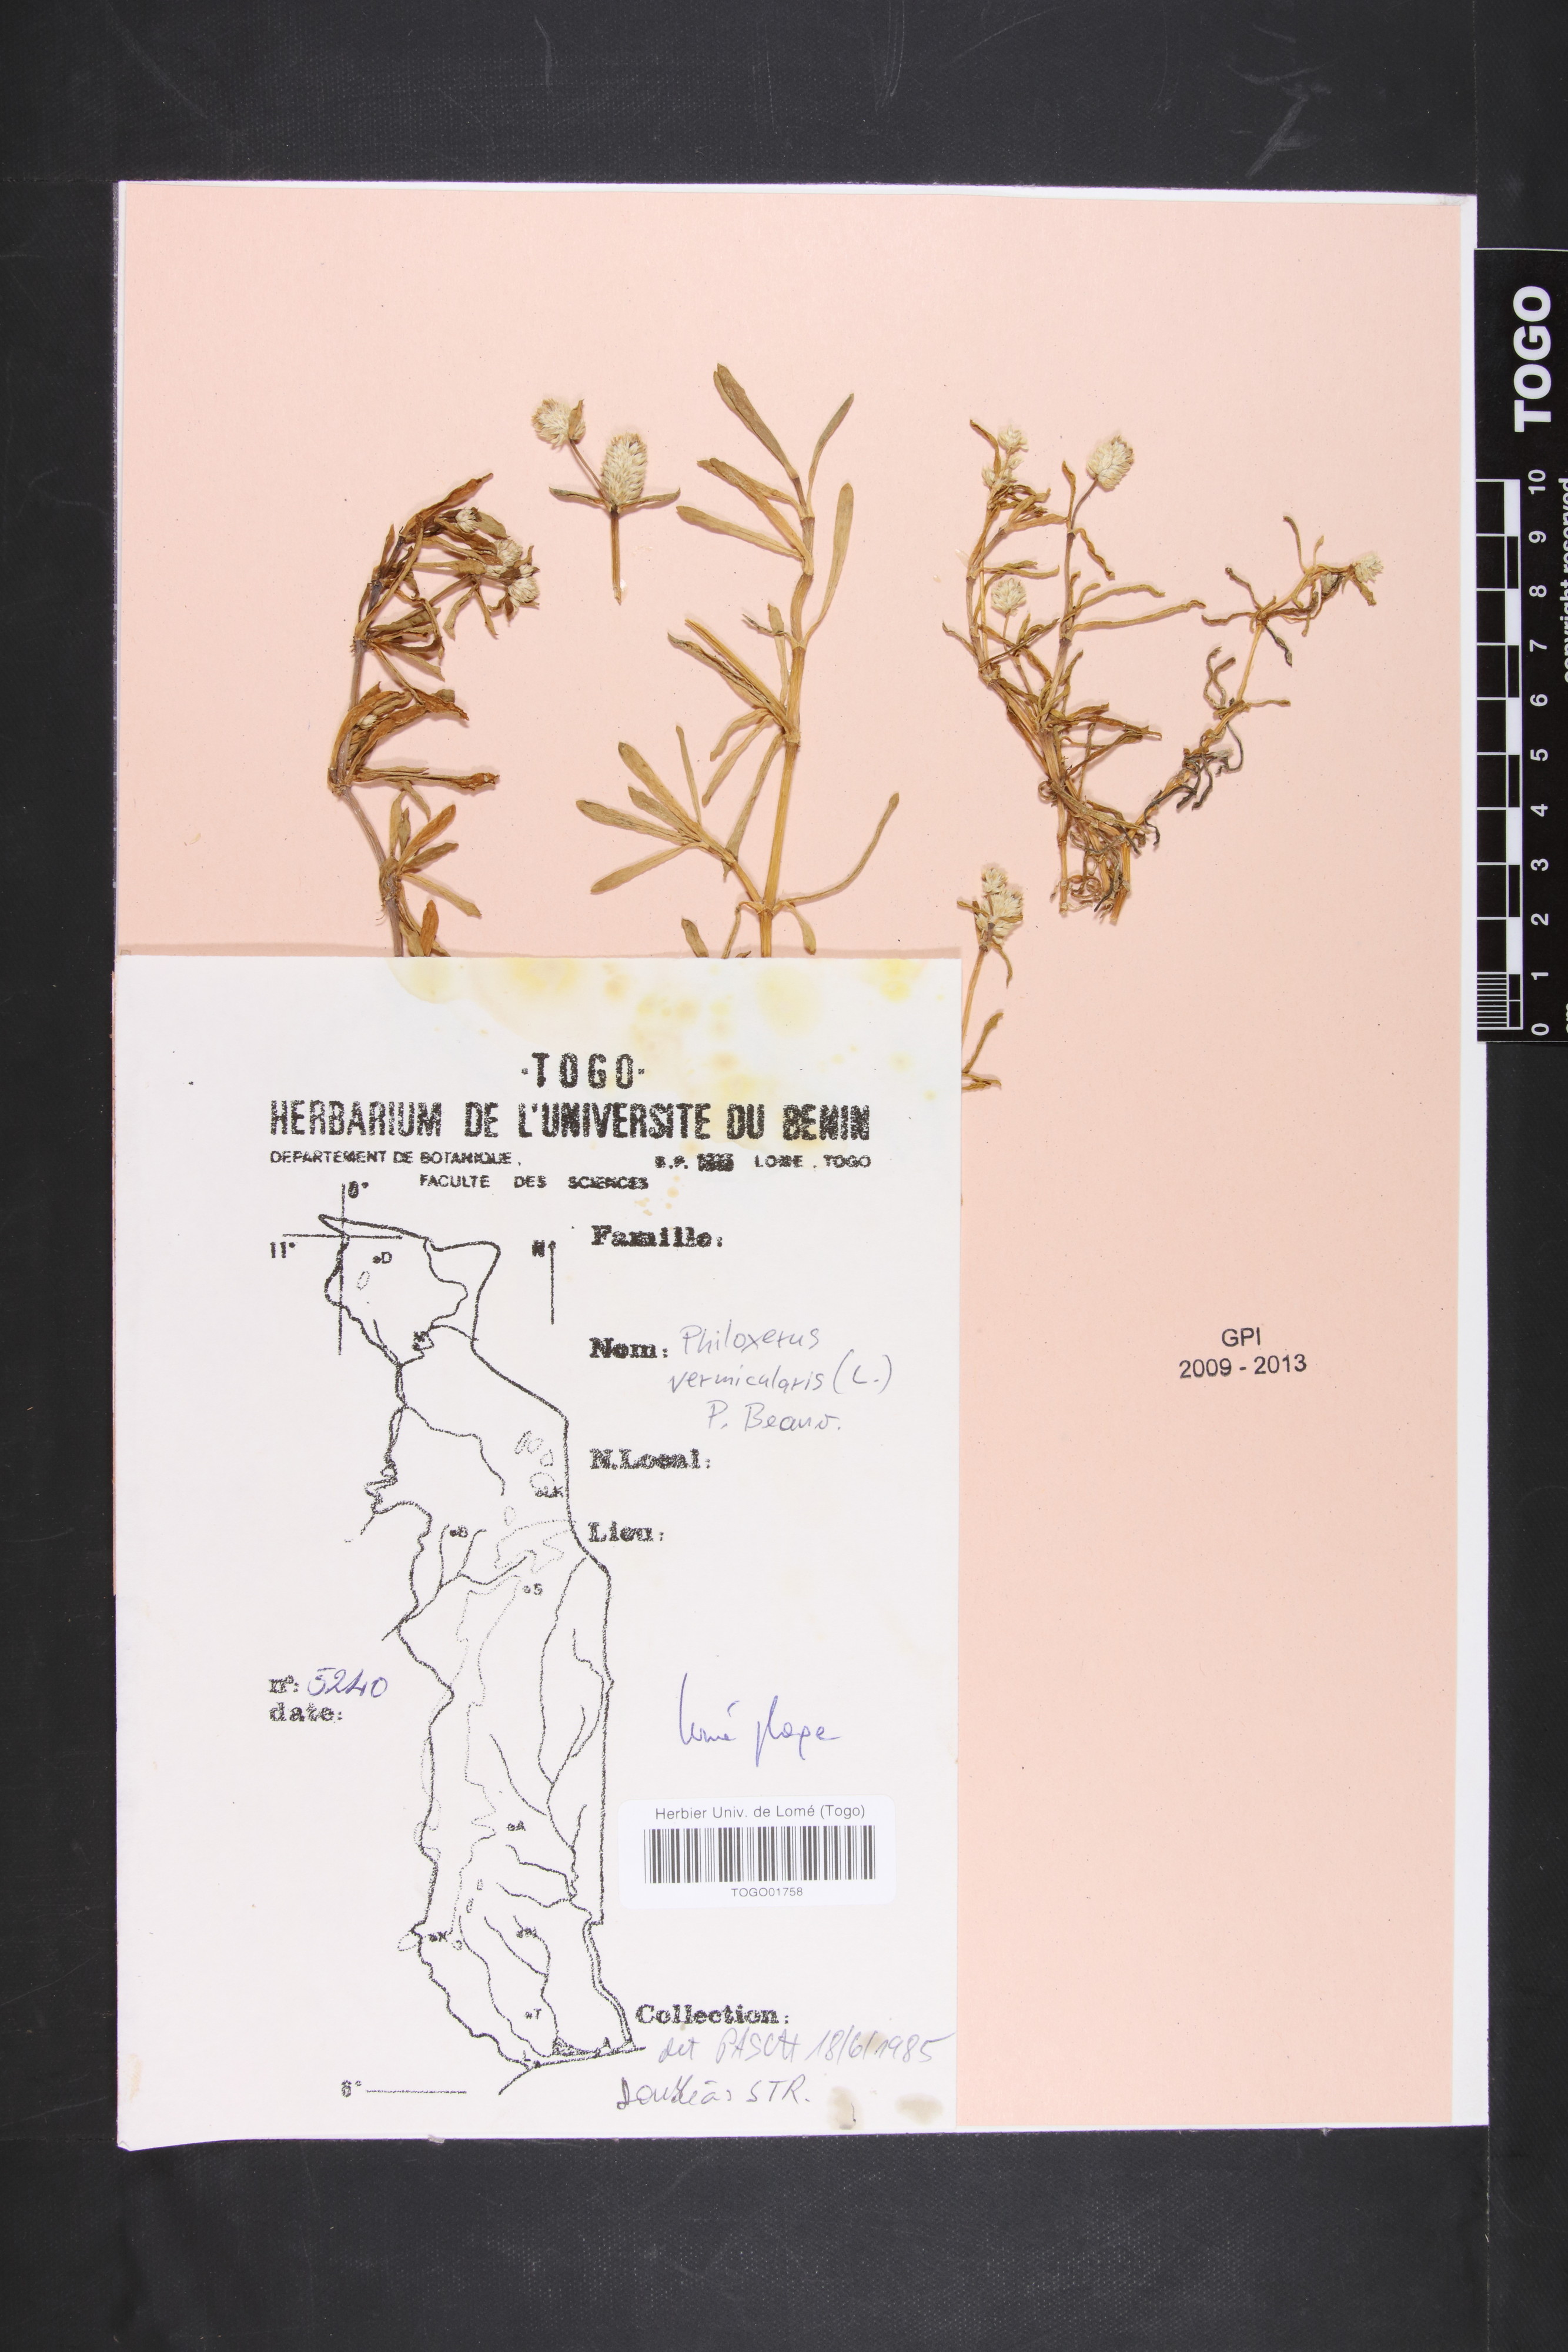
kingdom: Plantae
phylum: Tracheophyta
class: Magnoliopsida
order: Caryophyllales
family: Amaranthaceae
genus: Gomphrena
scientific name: Gomphrena vermicularis
